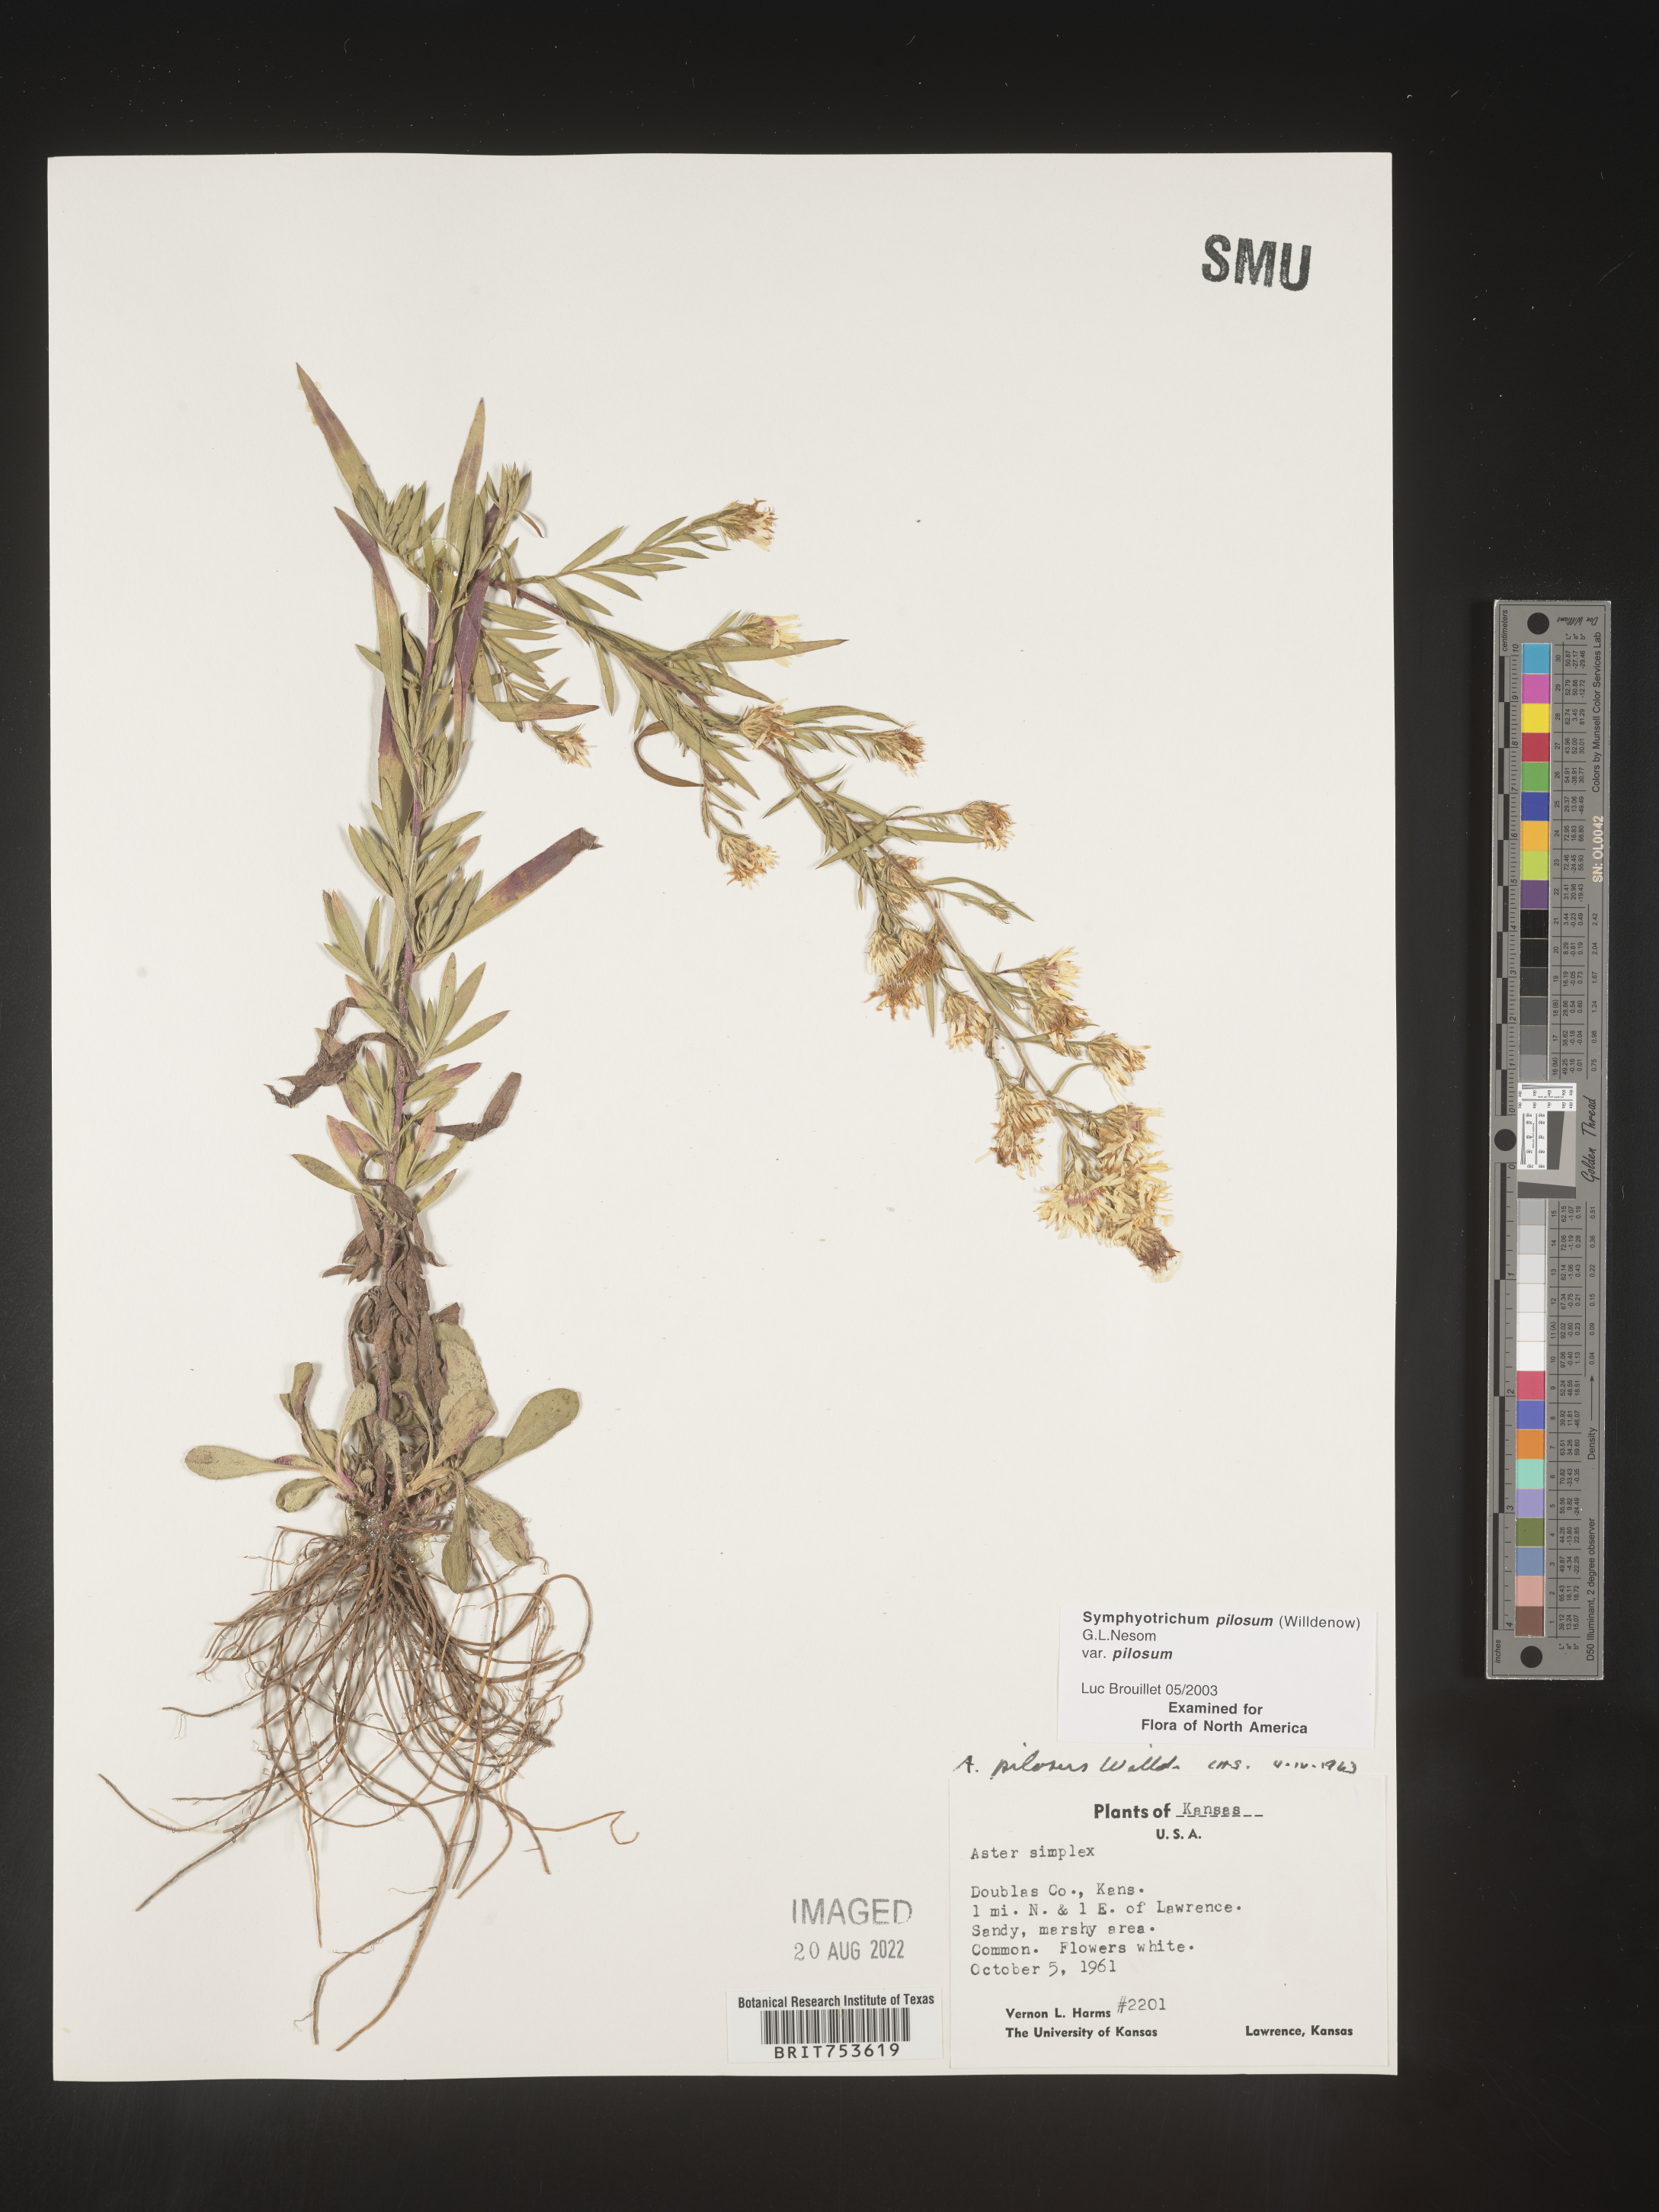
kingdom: Plantae
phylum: Tracheophyta
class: Magnoliopsida
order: Asterales
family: Asteraceae
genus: Symphyotrichum
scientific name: Symphyotrichum pilosum
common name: Awl aster
